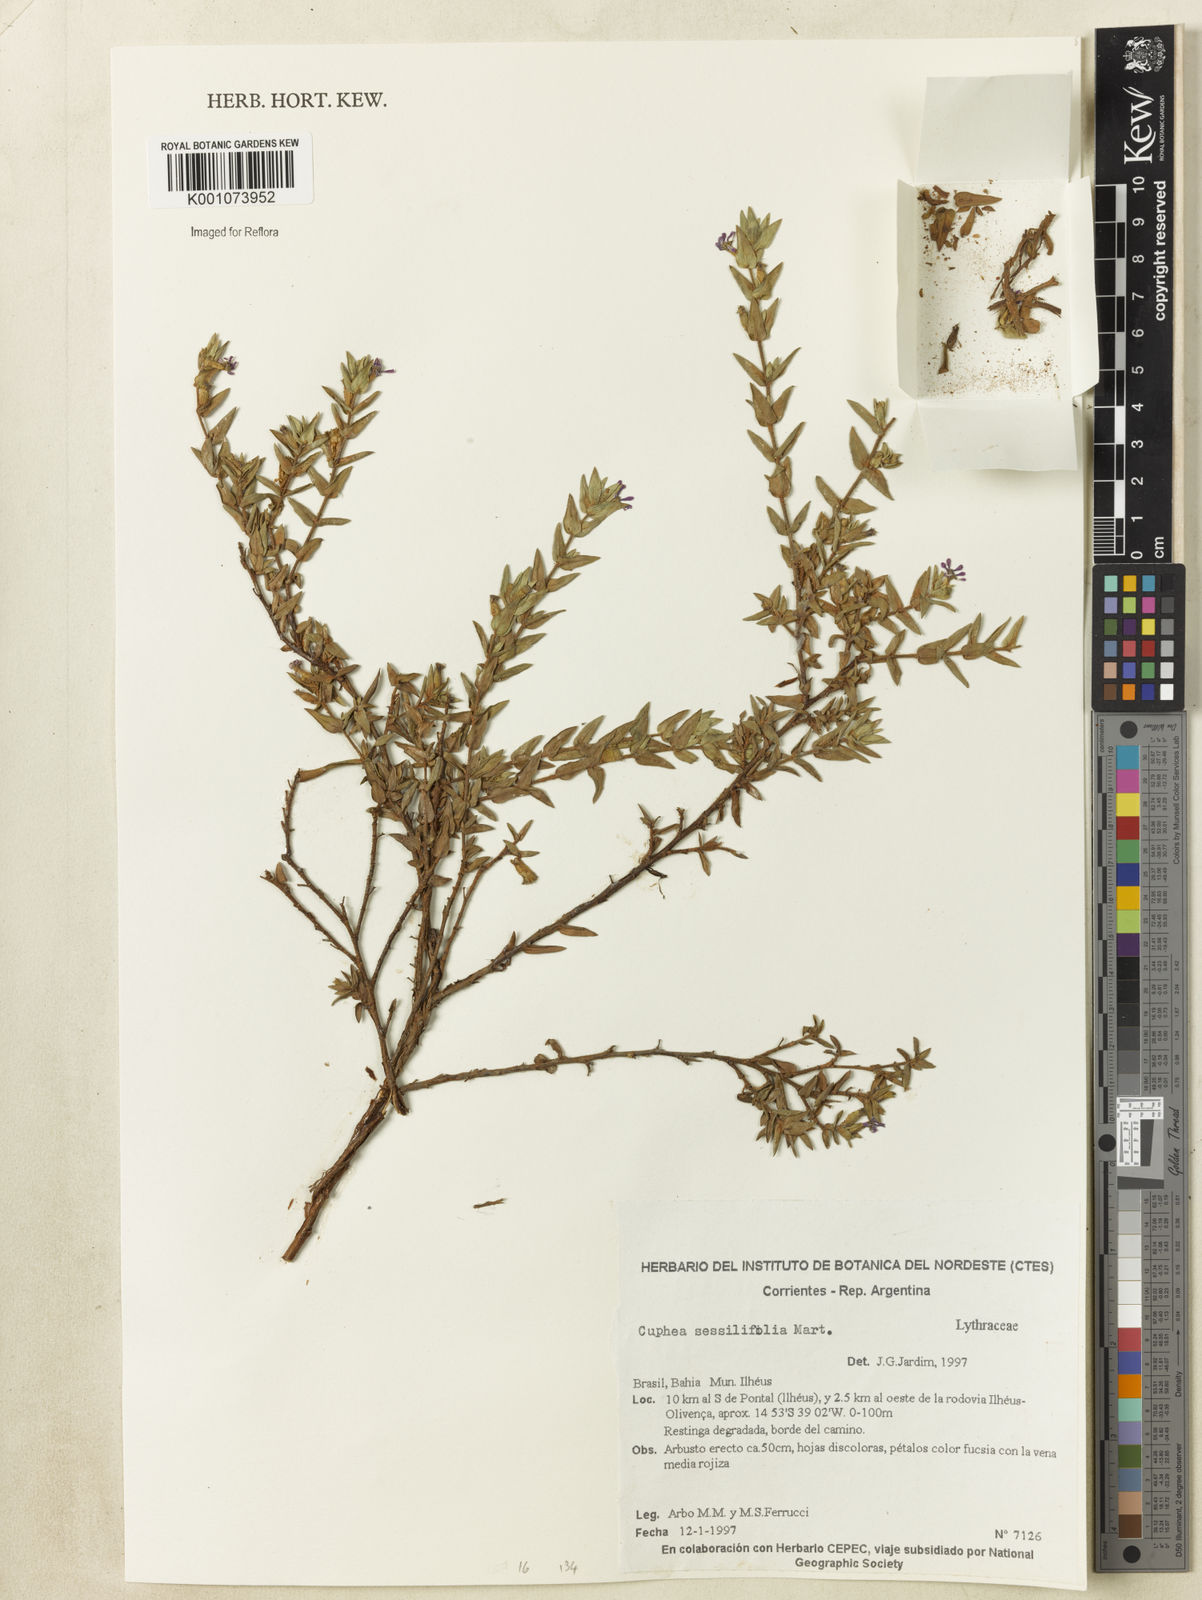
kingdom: Plantae
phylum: Tracheophyta
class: Magnoliopsida
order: Myrtales
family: Lythraceae
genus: Cuphea
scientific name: Cuphea sessiliflora
